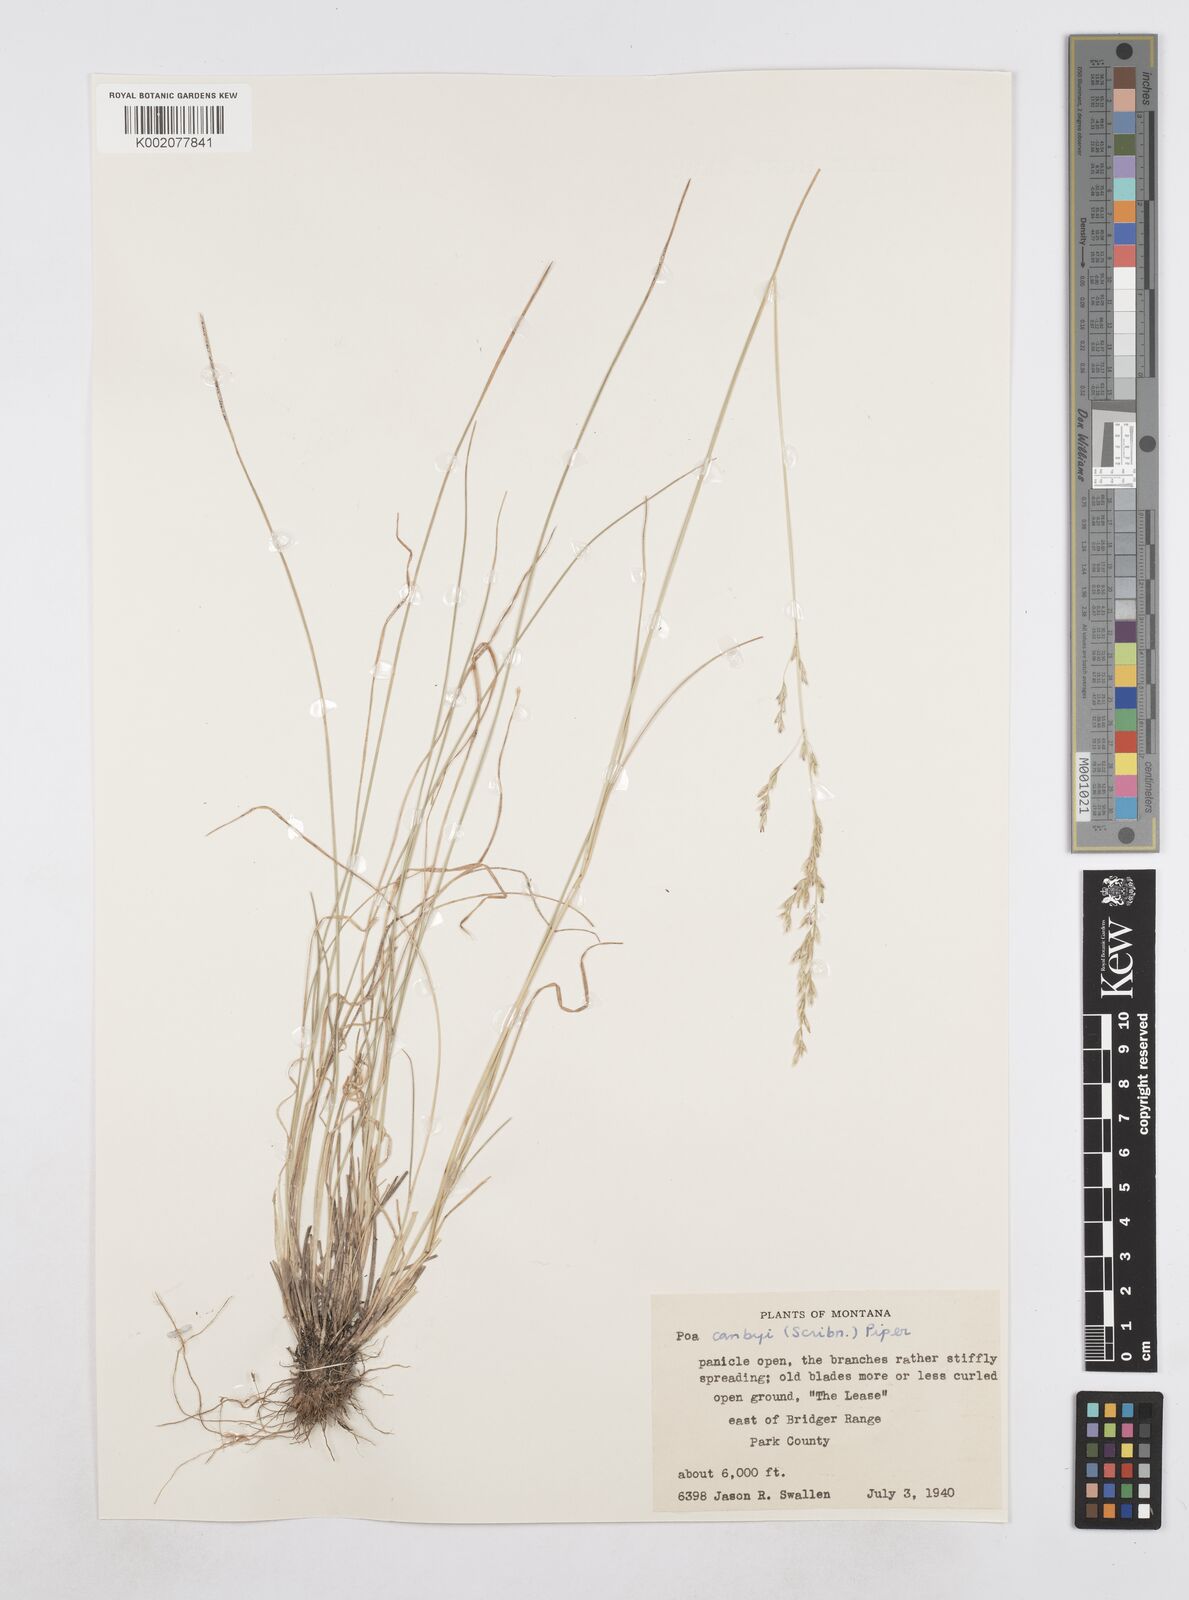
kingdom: Plantae
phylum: Tracheophyta
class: Liliopsida
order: Poales
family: Poaceae
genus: Poa
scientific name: Poa secunda
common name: Sandberg bluegrass
